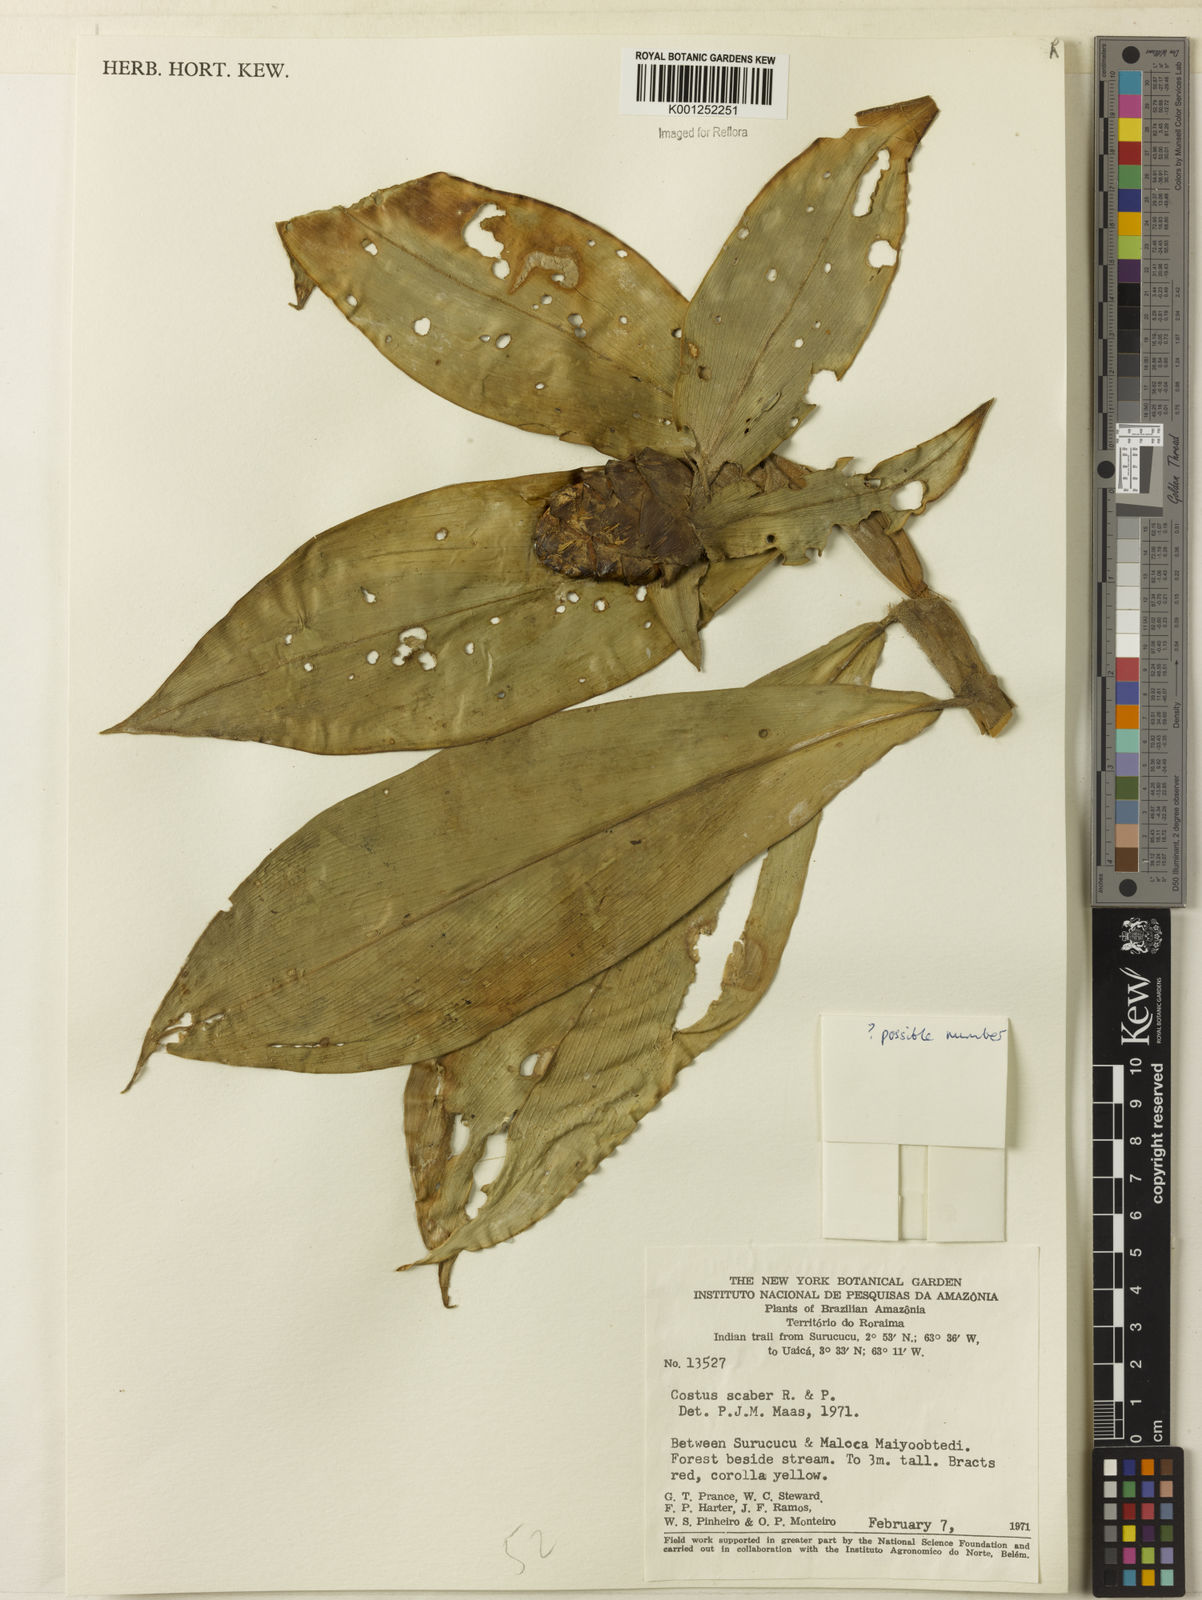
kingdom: Plantae
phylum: Tracheophyta
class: Liliopsida
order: Zingiberales
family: Costaceae
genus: Costus
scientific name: Costus scaber
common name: Spiral head ginger
